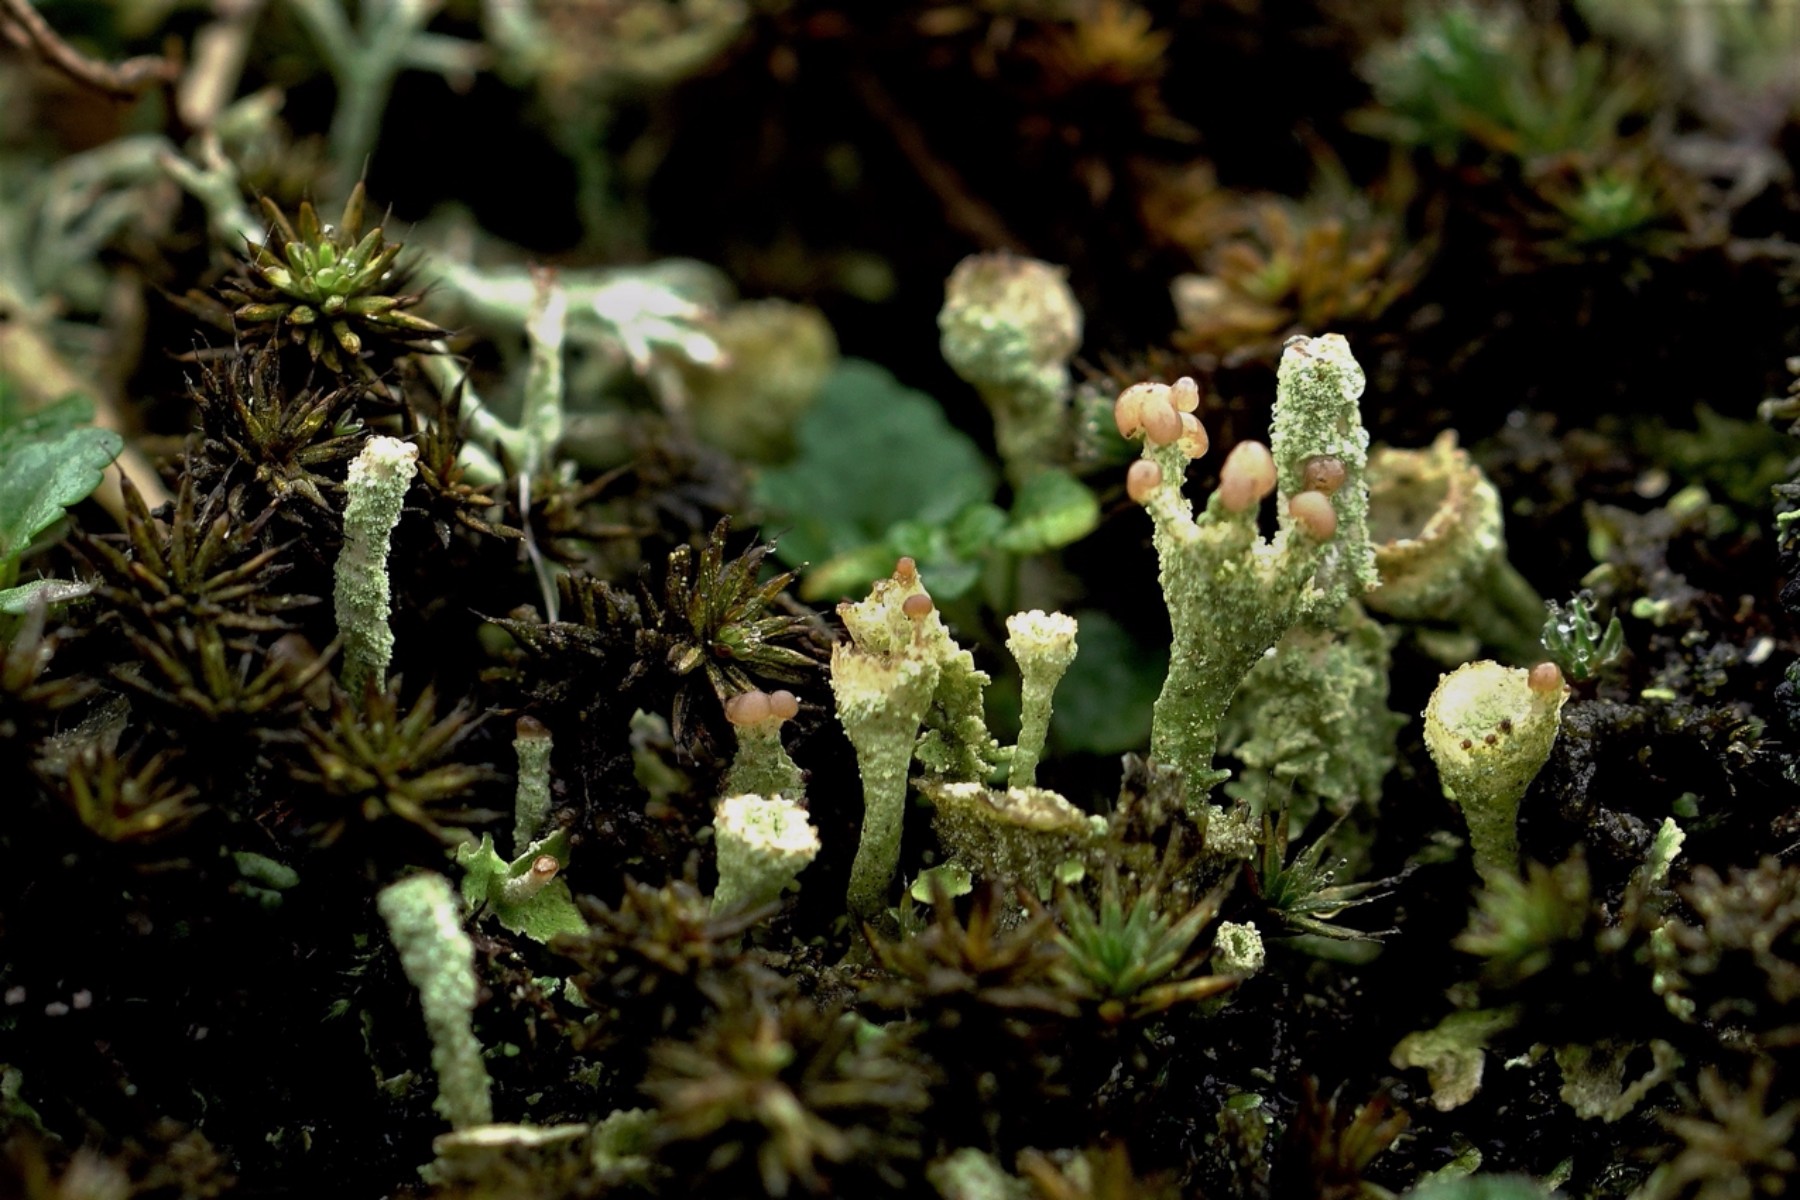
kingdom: Fungi
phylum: Ascomycota
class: Lecanoromycetes
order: Lecanorales
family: Cladoniaceae
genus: Cladonia
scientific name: Cladonia
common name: brungrøn bægerlav
